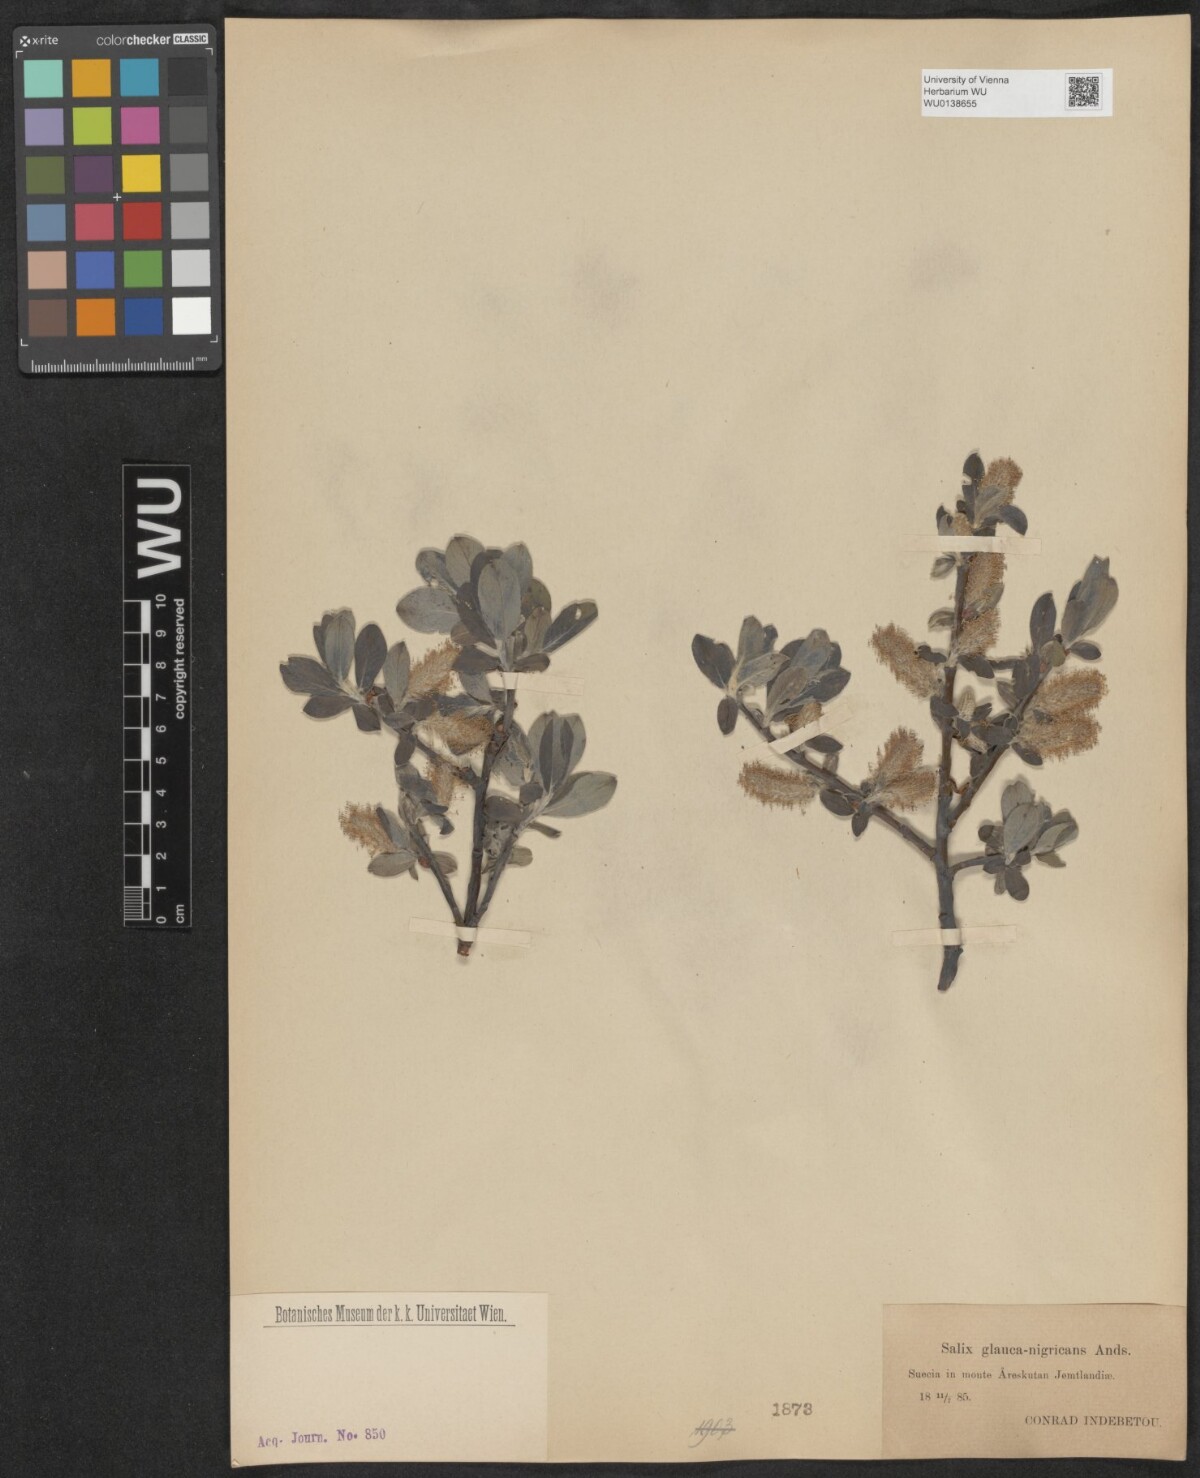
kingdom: Plantae
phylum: Tracheophyta
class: Magnoliopsida
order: Malpighiales
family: Salicaceae
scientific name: Salicaceae
